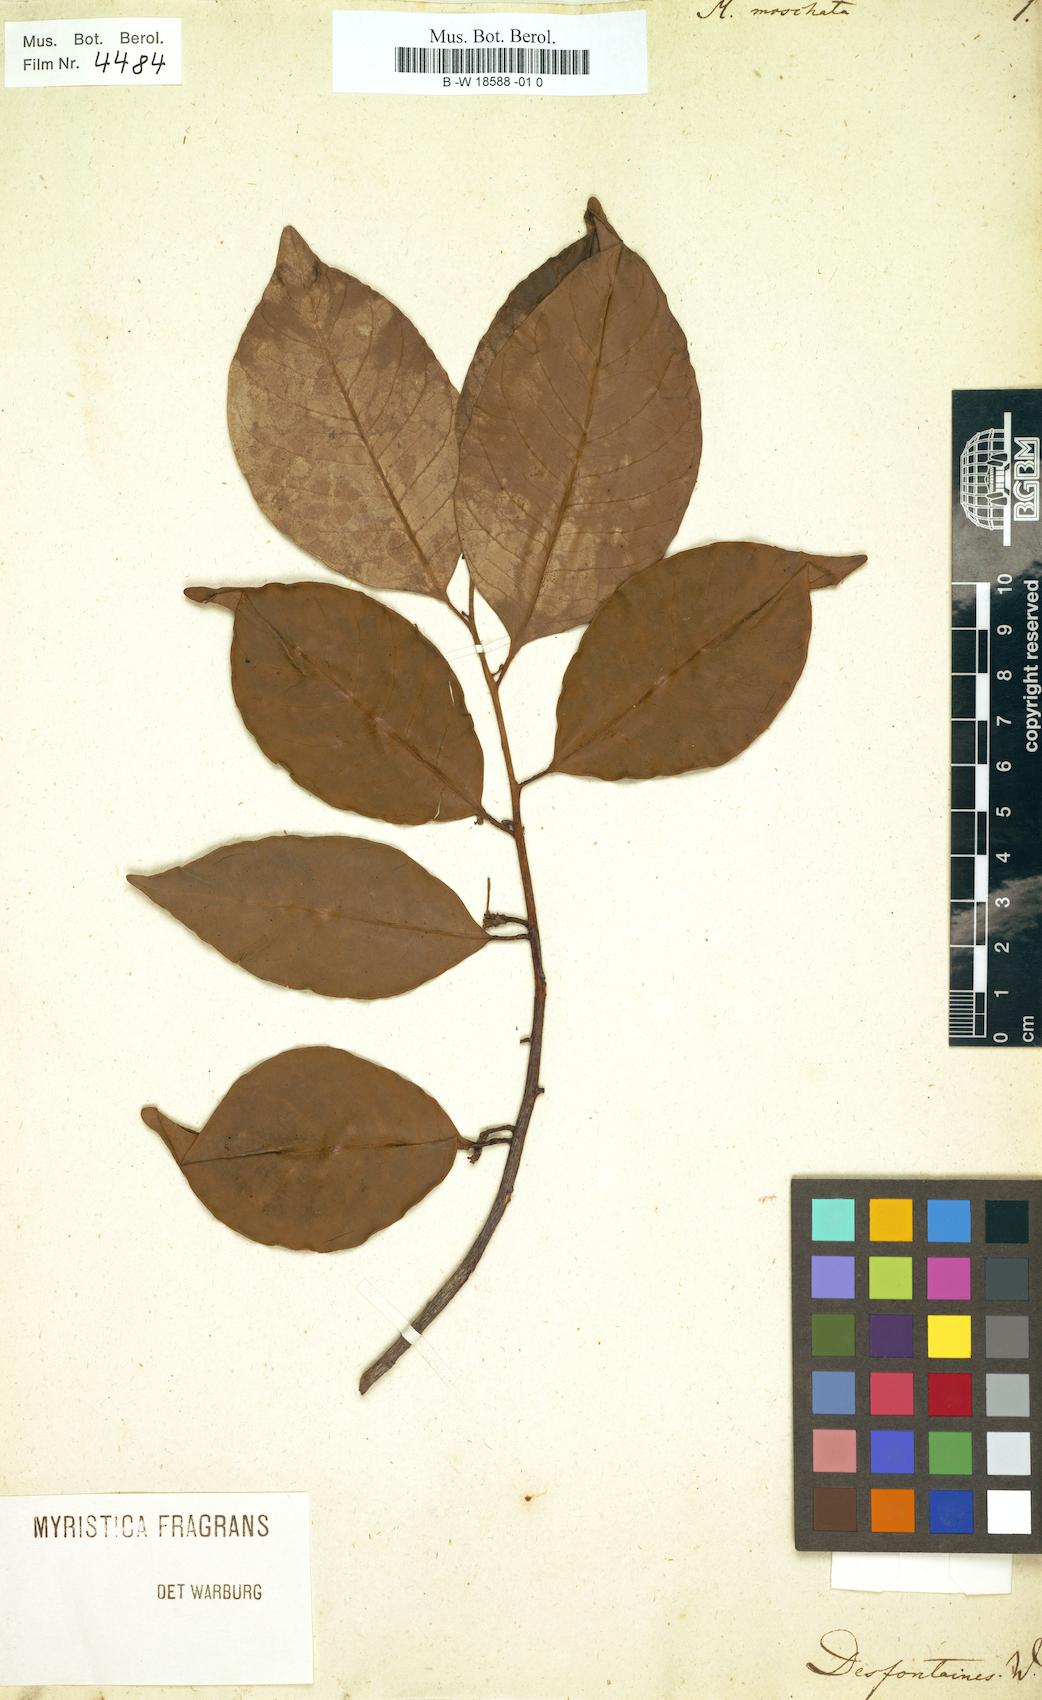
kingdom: Plantae
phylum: Tracheophyta
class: Magnoliopsida
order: Magnoliales
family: Myristicaceae
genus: Myristica
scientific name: Myristica fragrans
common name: Nutmeg
